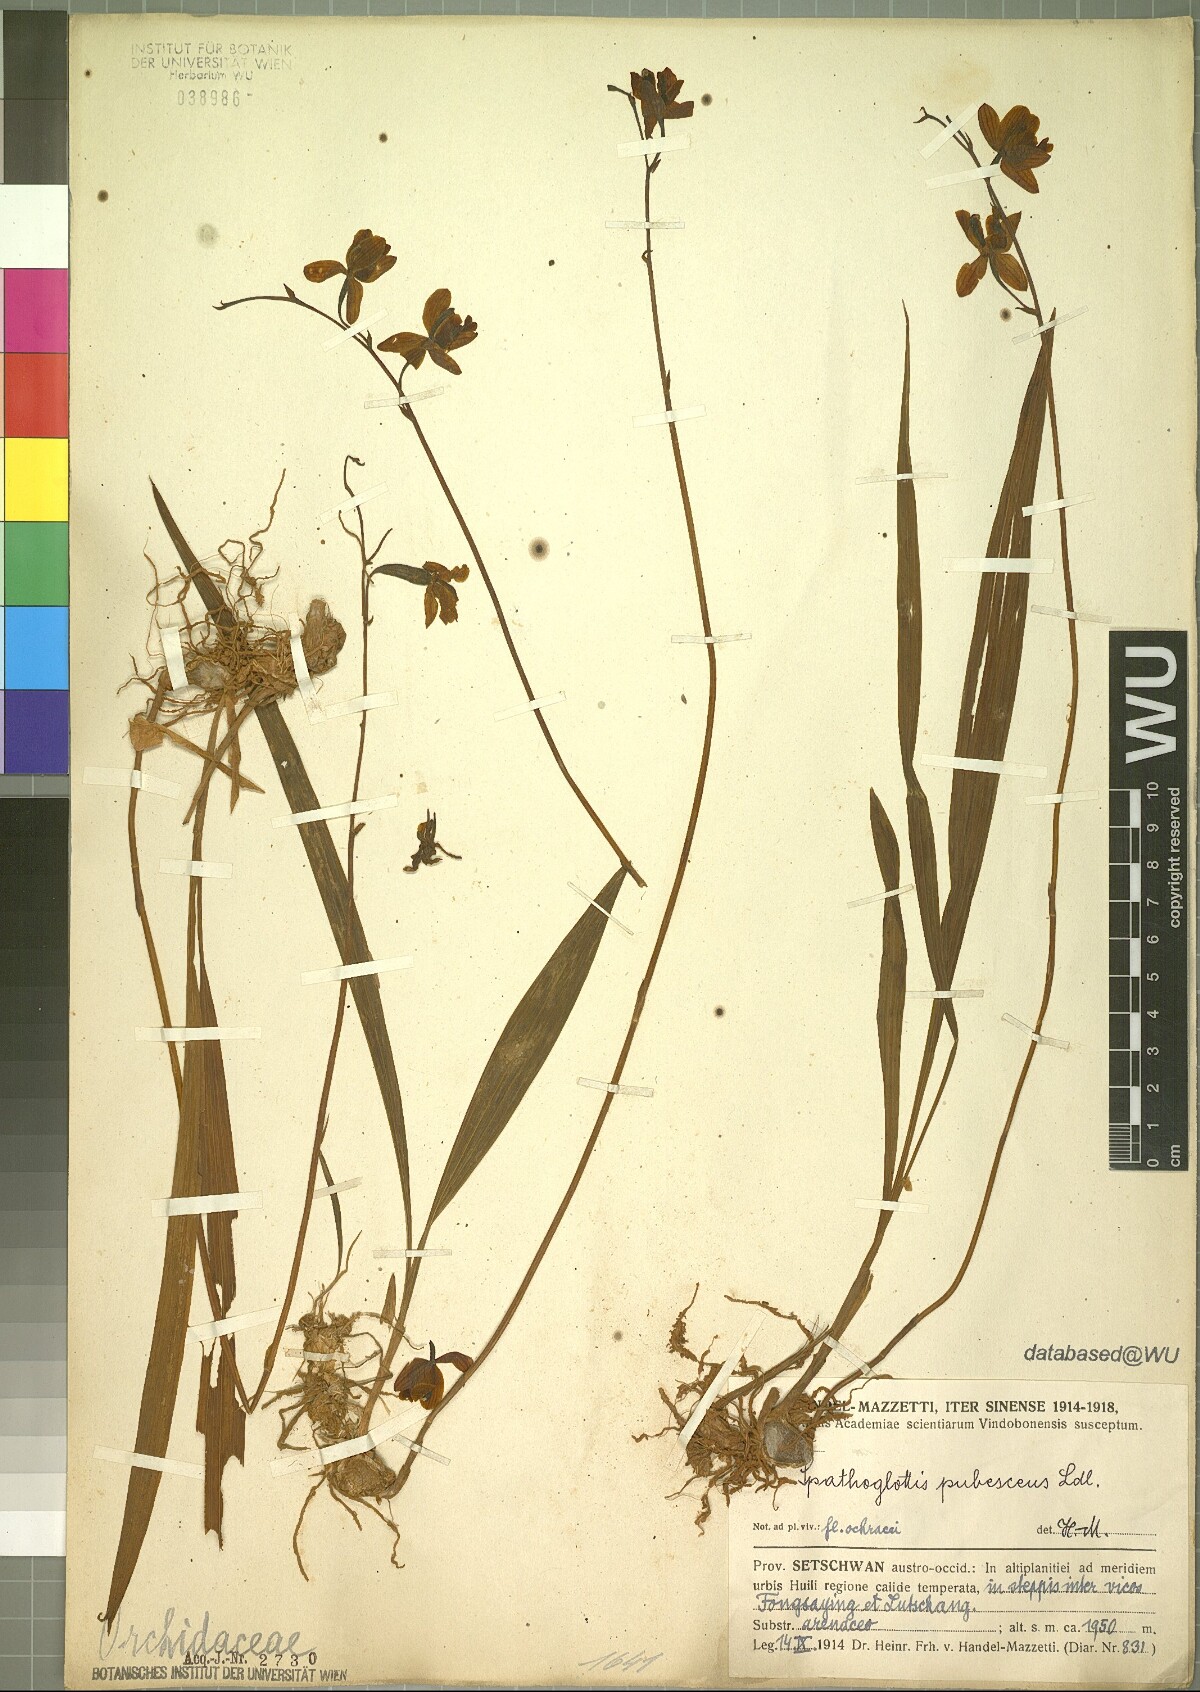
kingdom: Plantae
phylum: Tracheophyta
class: Liliopsida
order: Asparagales
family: Orchidaceae
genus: Spathoglottis
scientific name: Spathoglottis pubescens
